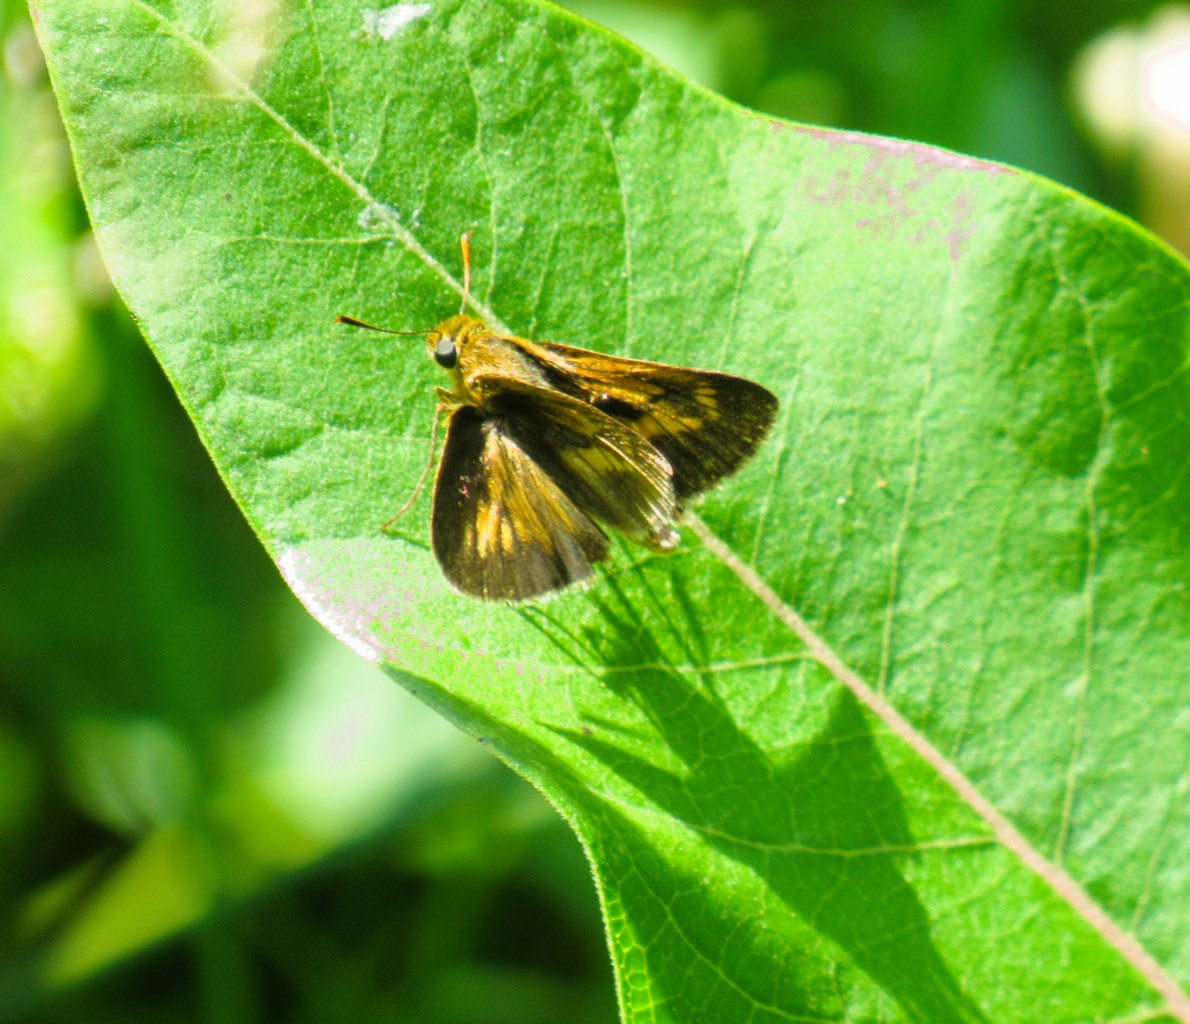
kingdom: Animalia
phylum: Arthropoda
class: Insecta
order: Lepidoptera
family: Hesperiidae
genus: Euphyes
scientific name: Euphyes conspicua
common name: Black Dash
